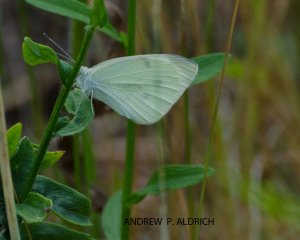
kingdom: Animalia
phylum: Arthropoda
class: Insecta
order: Lepidoptera
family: Pieridae
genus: Pieris
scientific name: Pieris rapae
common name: Cabbage White
